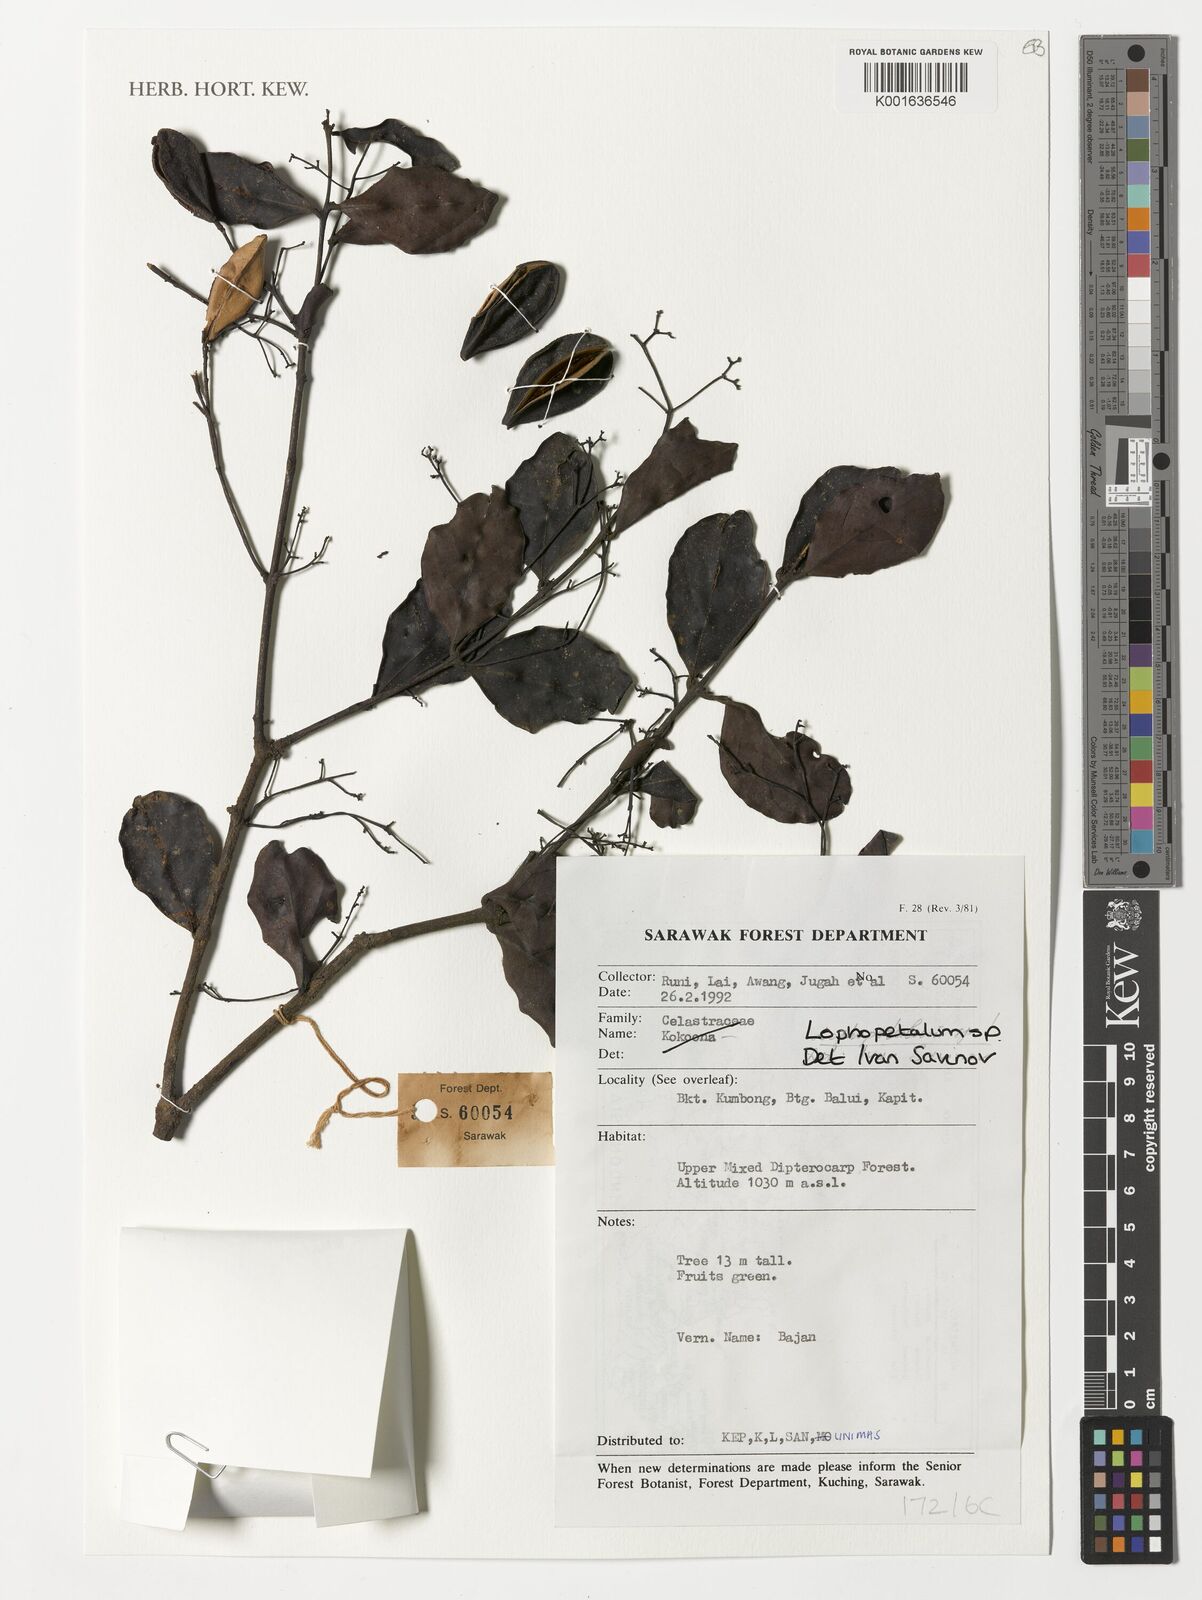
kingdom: Plantae
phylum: Tracheophyta
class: Magnoliopsida
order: Celastrales
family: Celastraceae
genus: Lophopetalum
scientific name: Lophopetalum
